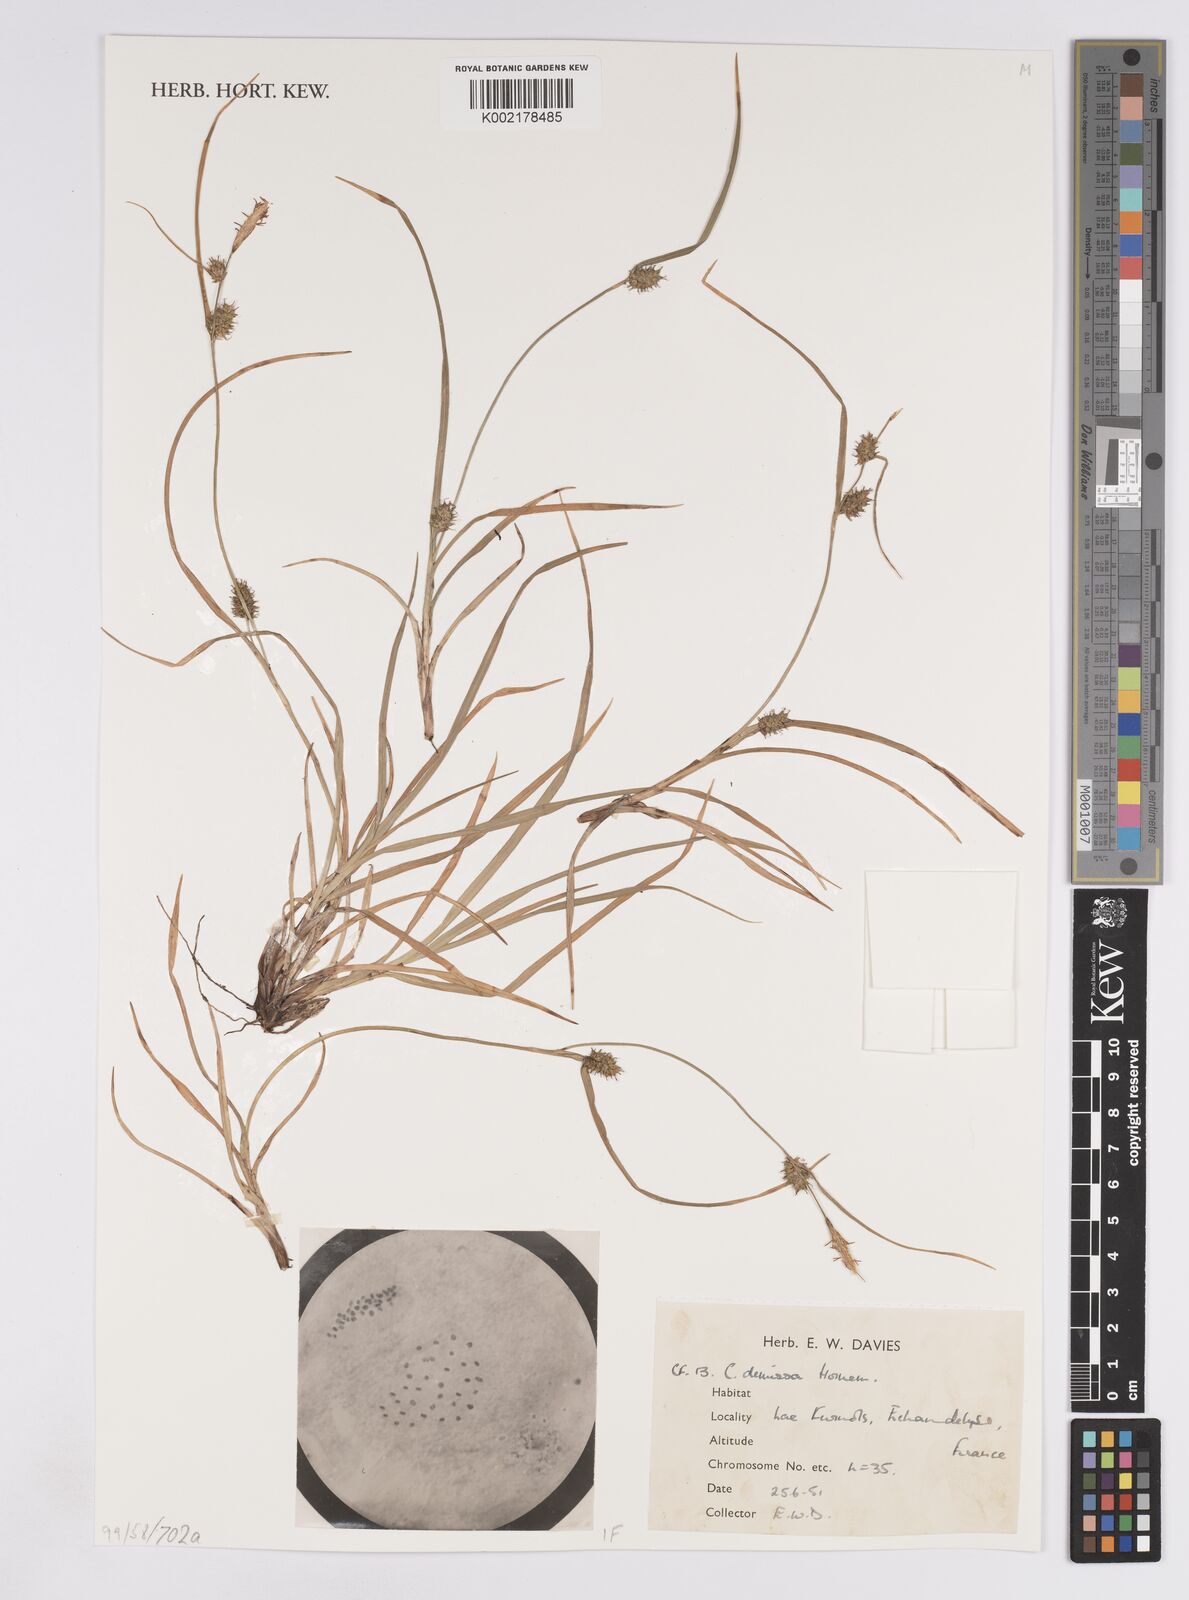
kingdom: Plantae
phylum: Tracheophyta
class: Liliopsida
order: Poales
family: Cyperaceae
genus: Carex
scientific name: Carex demissa
